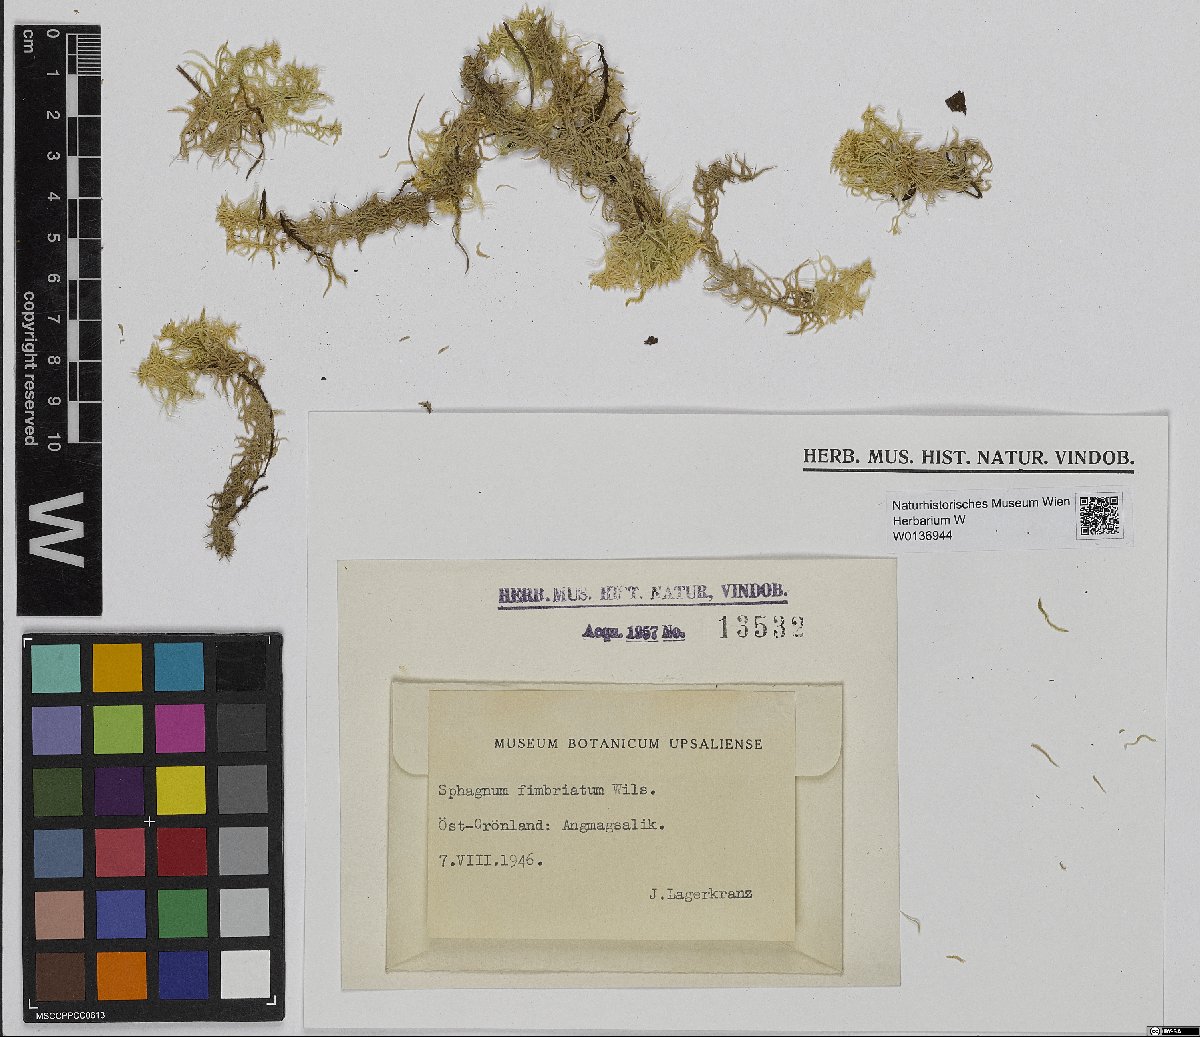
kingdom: Plantae
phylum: Bryophyta
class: Sphagnopsida
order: Sphagnales
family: Sphagnaceae
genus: Sphagnum
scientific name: Sphagnum fimbriatum
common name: Fringed peat moss
